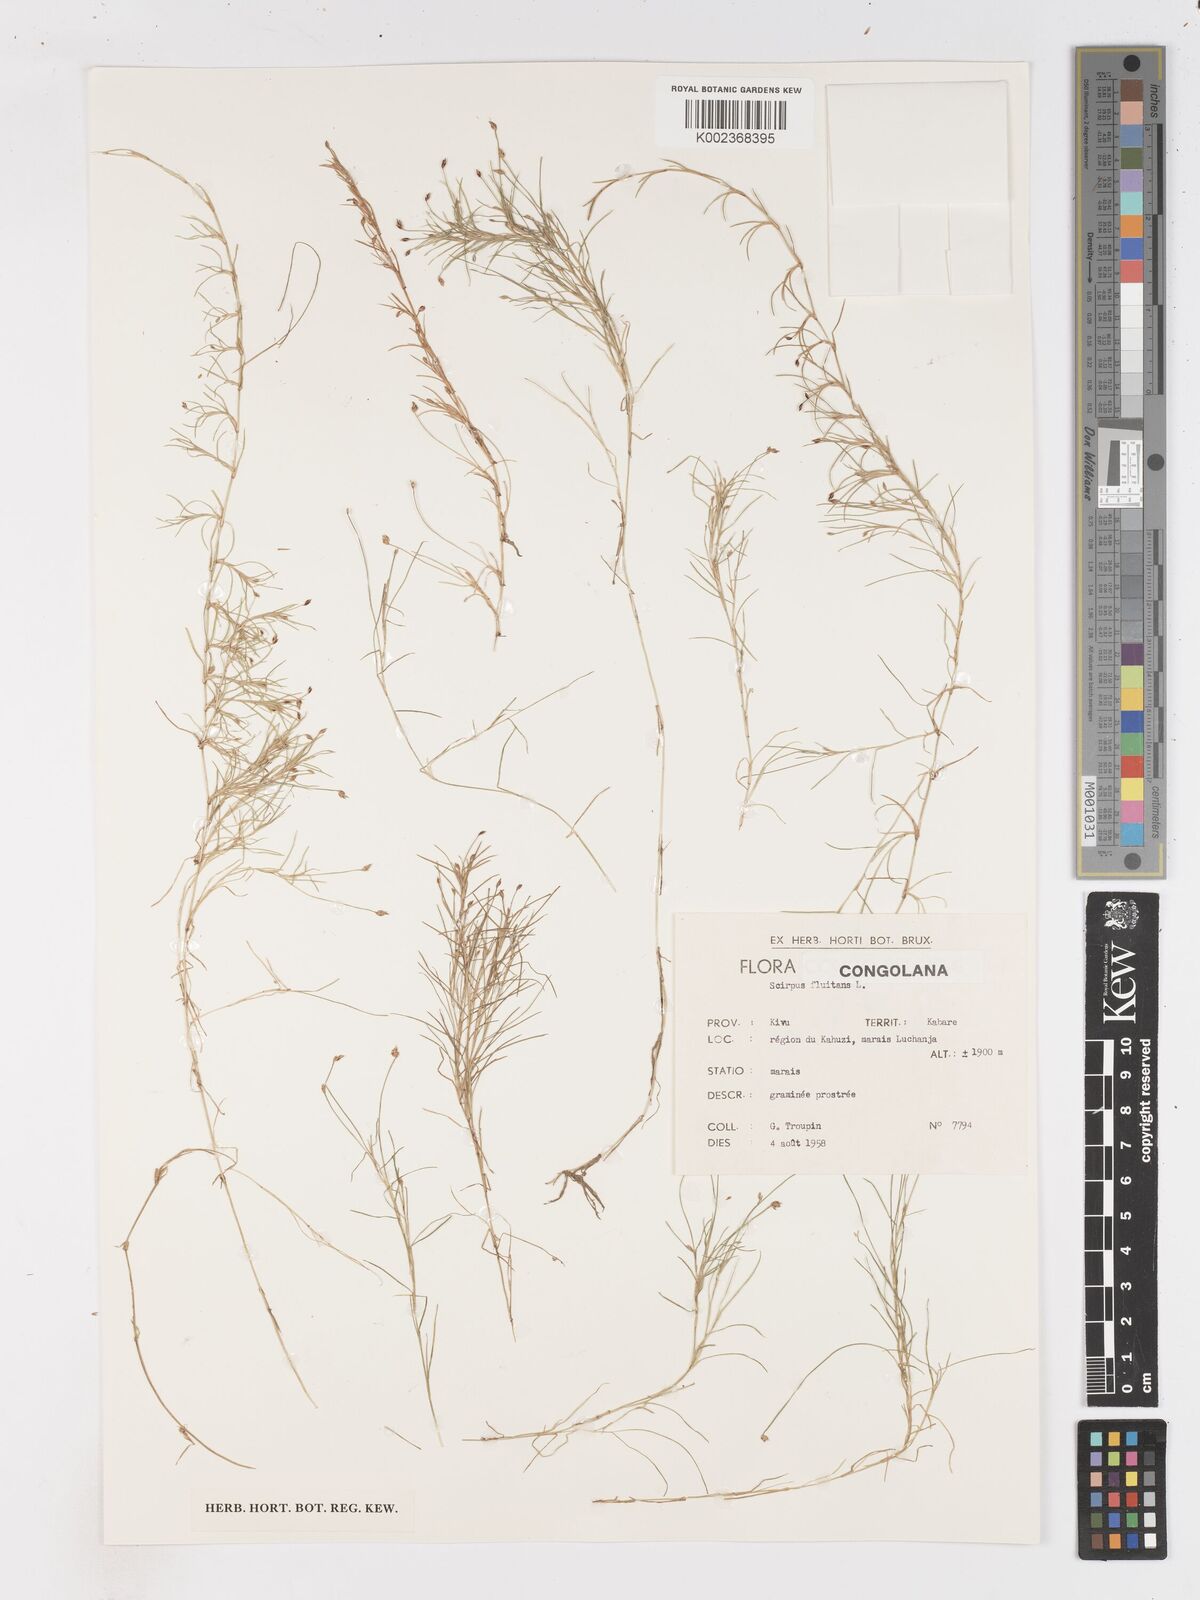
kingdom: Plantae
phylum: Tracheophyta
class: Liliopsida
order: Poales
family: Cyperaceae
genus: Isolepis
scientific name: Isolepis fluitans
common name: Floating club-rush
